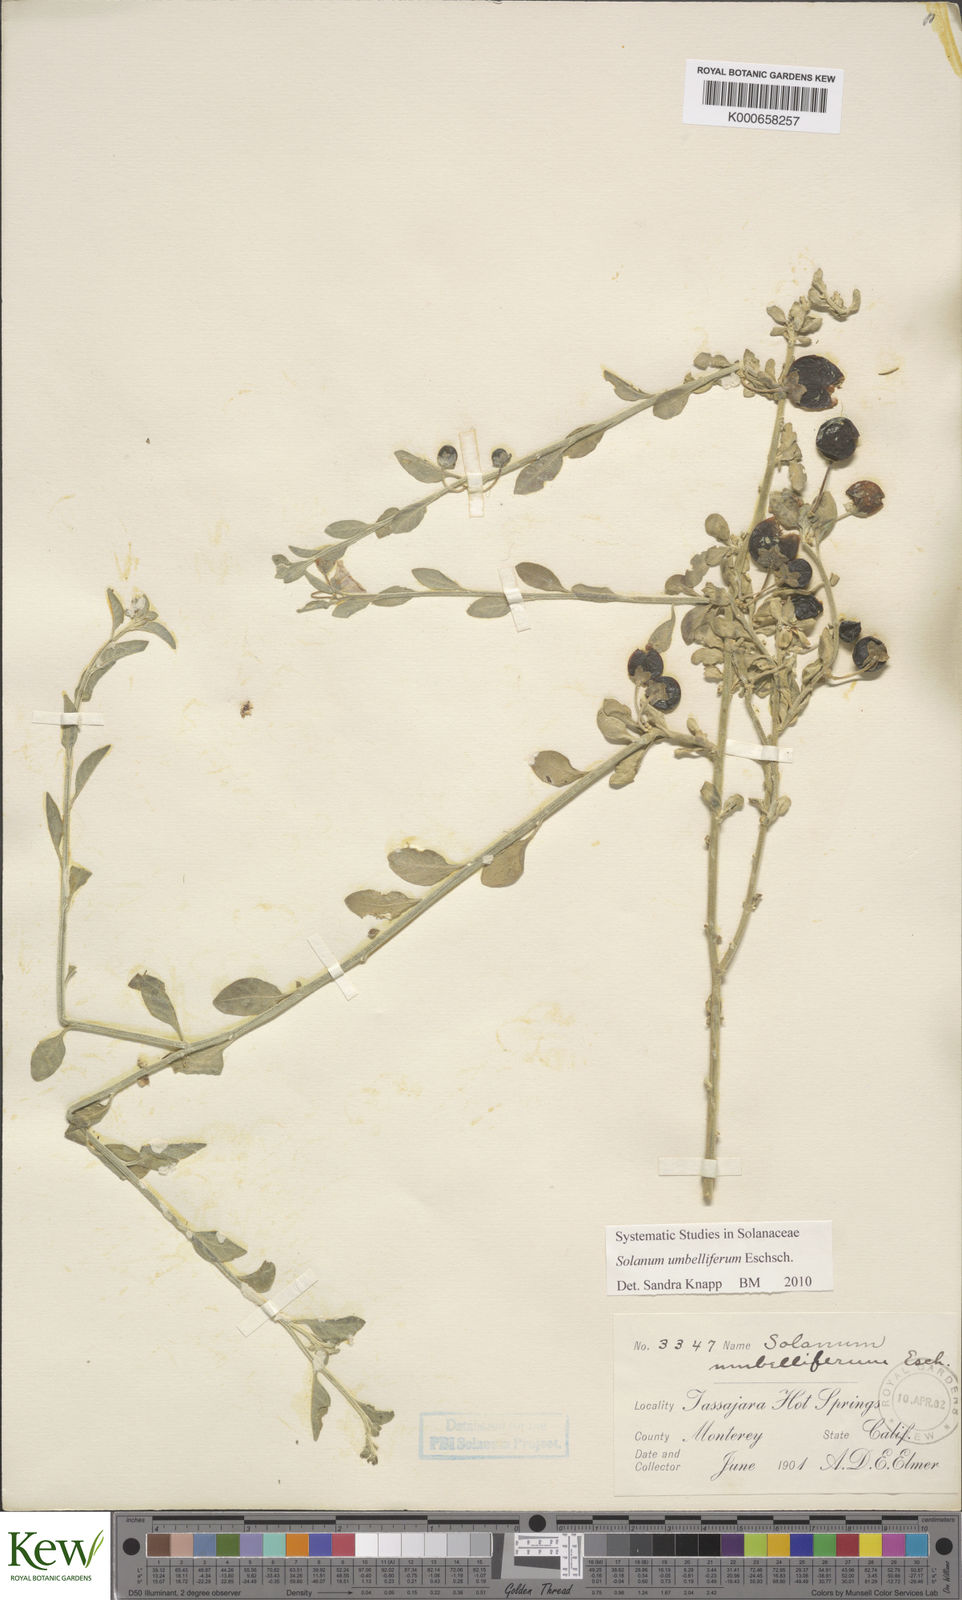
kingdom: Plantae
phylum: Tracheophyta
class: Magnoliopsida
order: Solanales
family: Solanaceae
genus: Solanum
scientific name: Solanum umbelliferum
